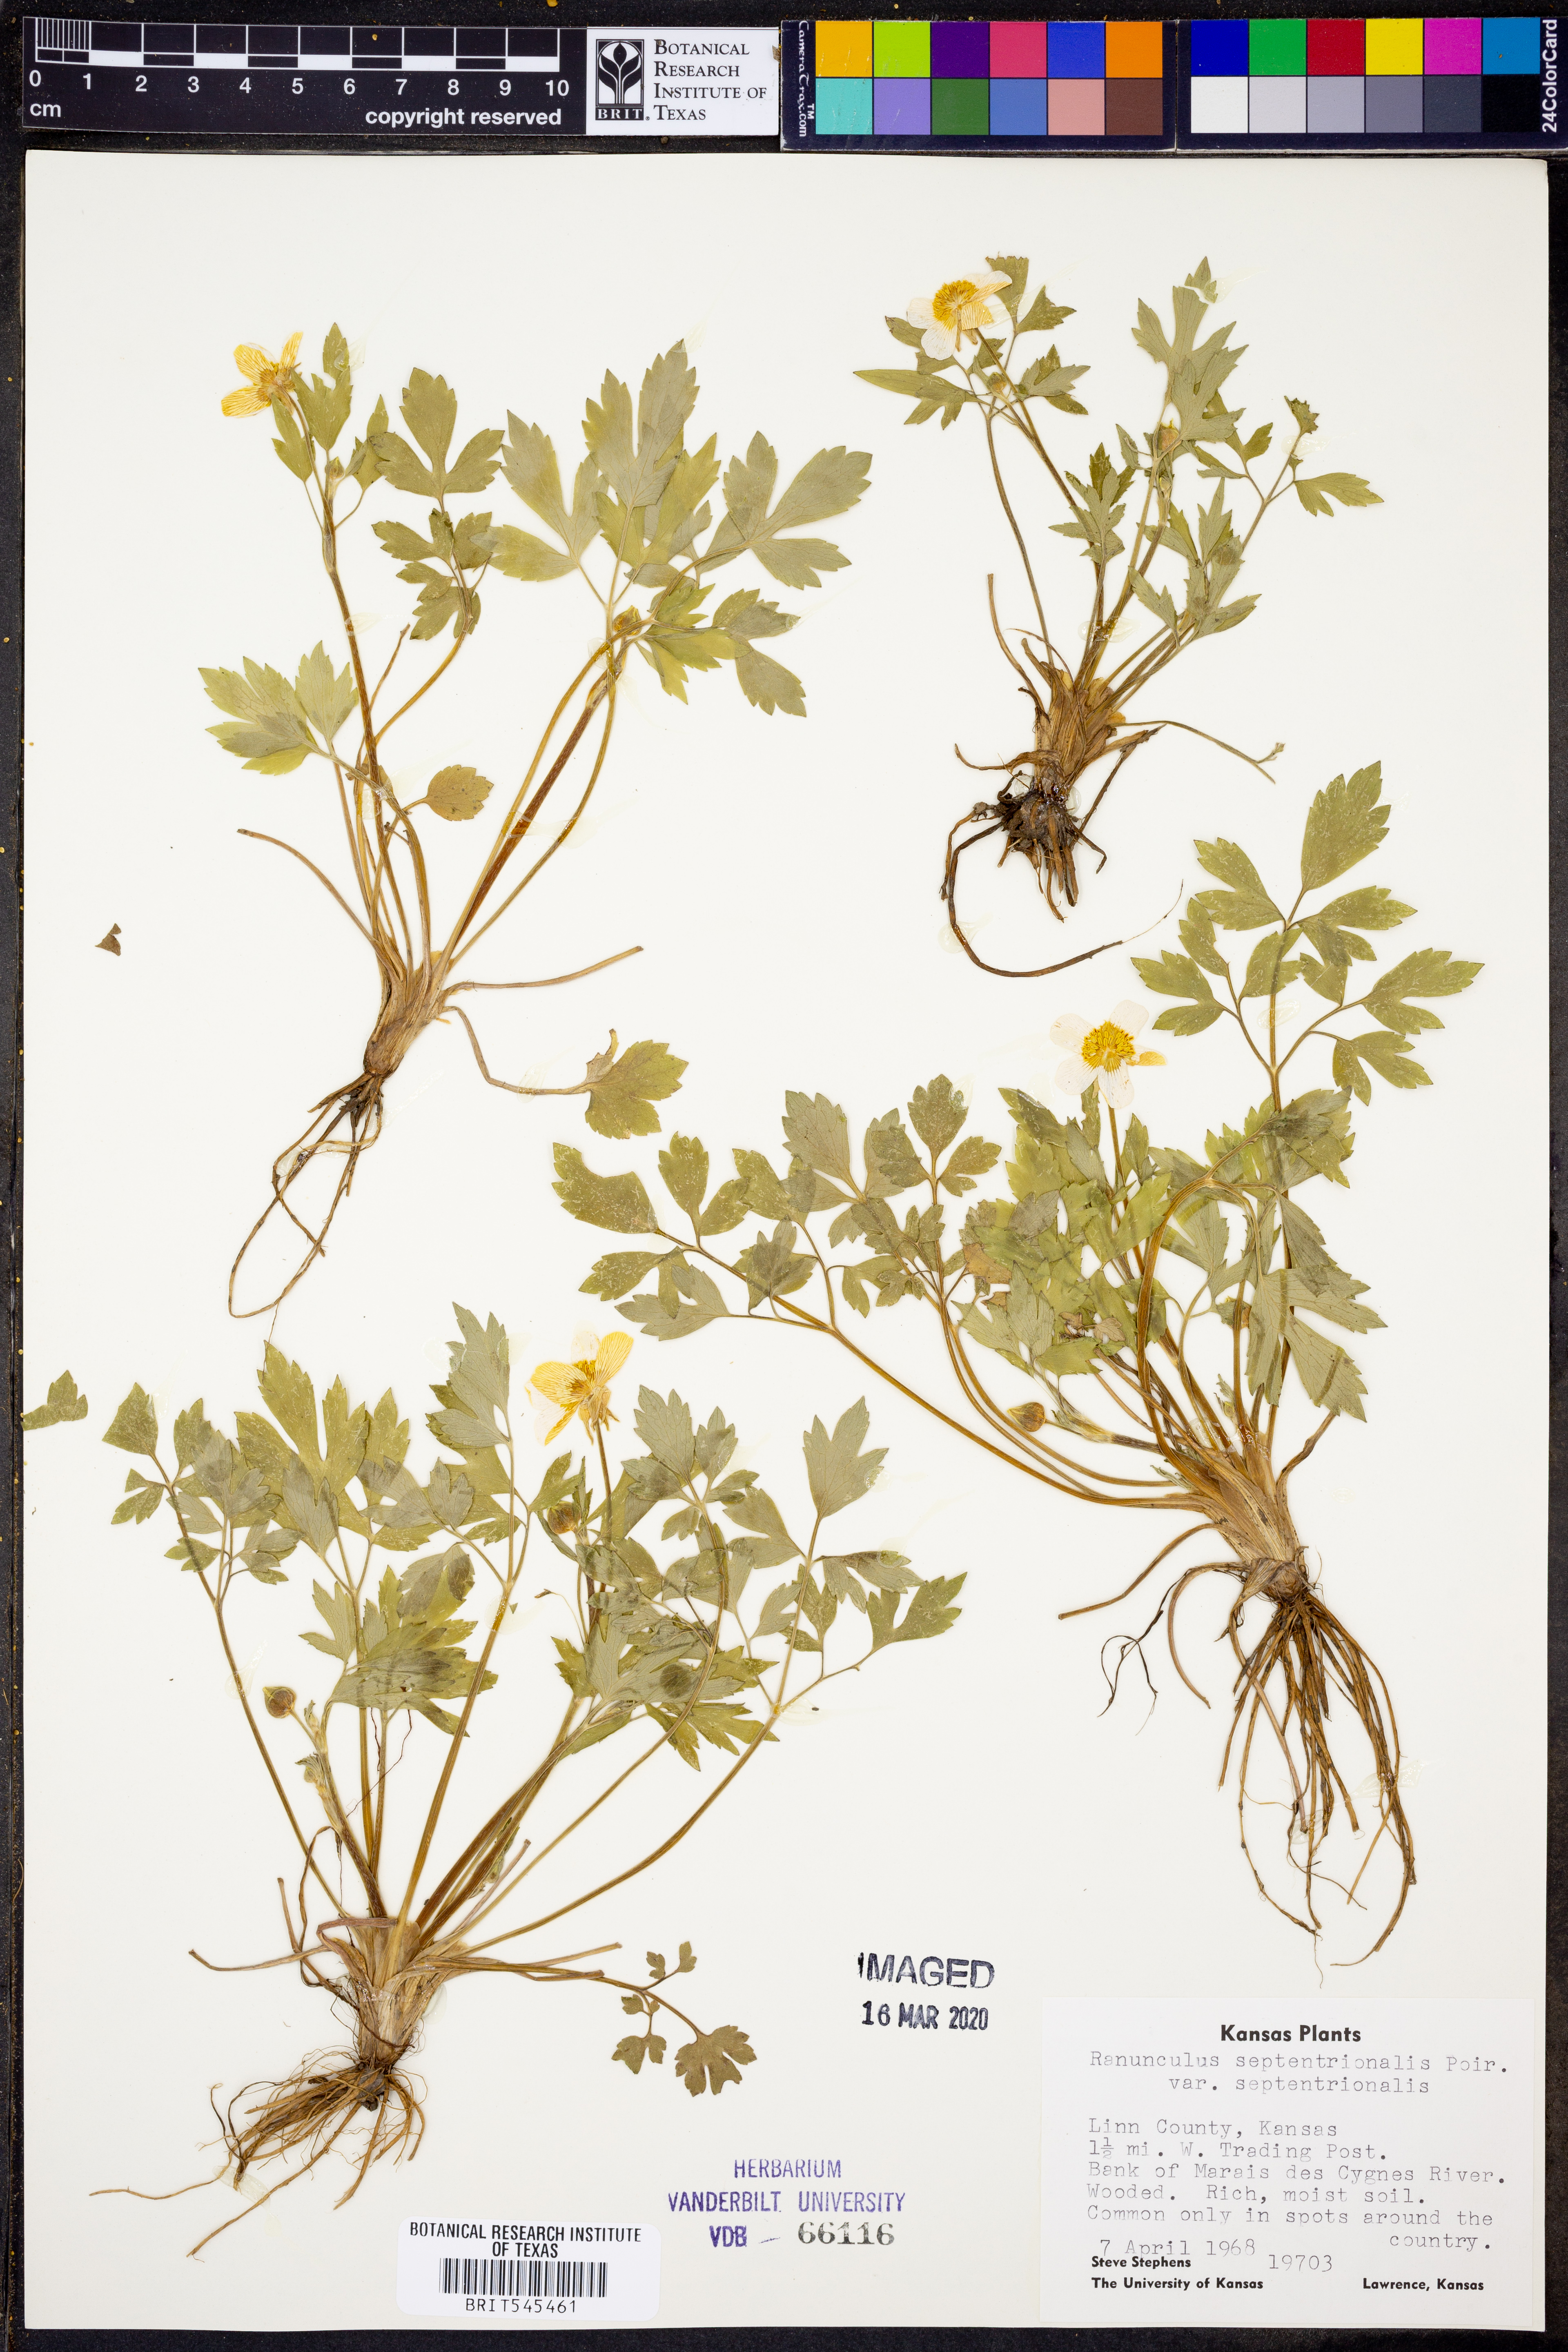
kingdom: Plantae
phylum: Tracheophyta
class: Magnoliopsida
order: Ranunculales
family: Ranunculaceae
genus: Ranunculus
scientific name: Ranunculus hispidus
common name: Bristly buttercup
